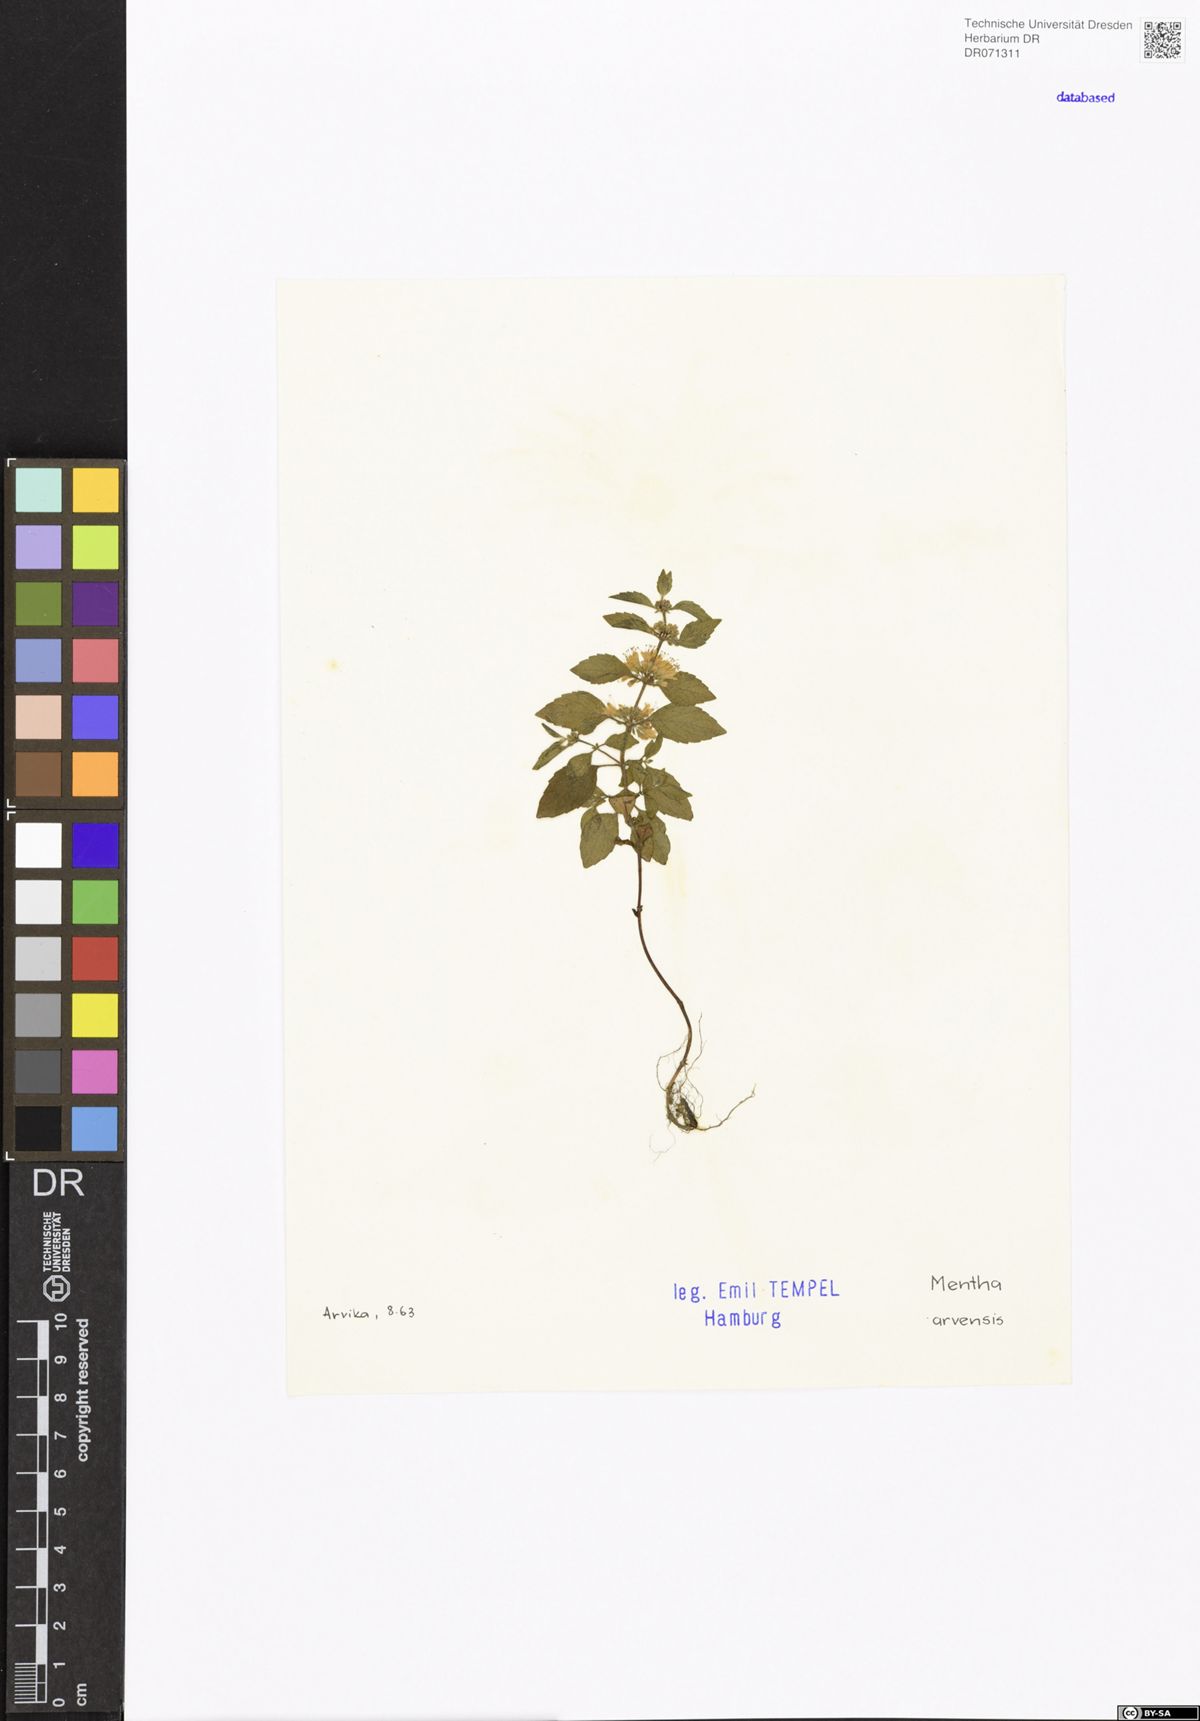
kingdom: Plantae
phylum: Tracheophyta
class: Magnoliopsida
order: Lamiales
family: Lamiaceae
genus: Mentha
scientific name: Mentha arvensis
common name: Corn mint
